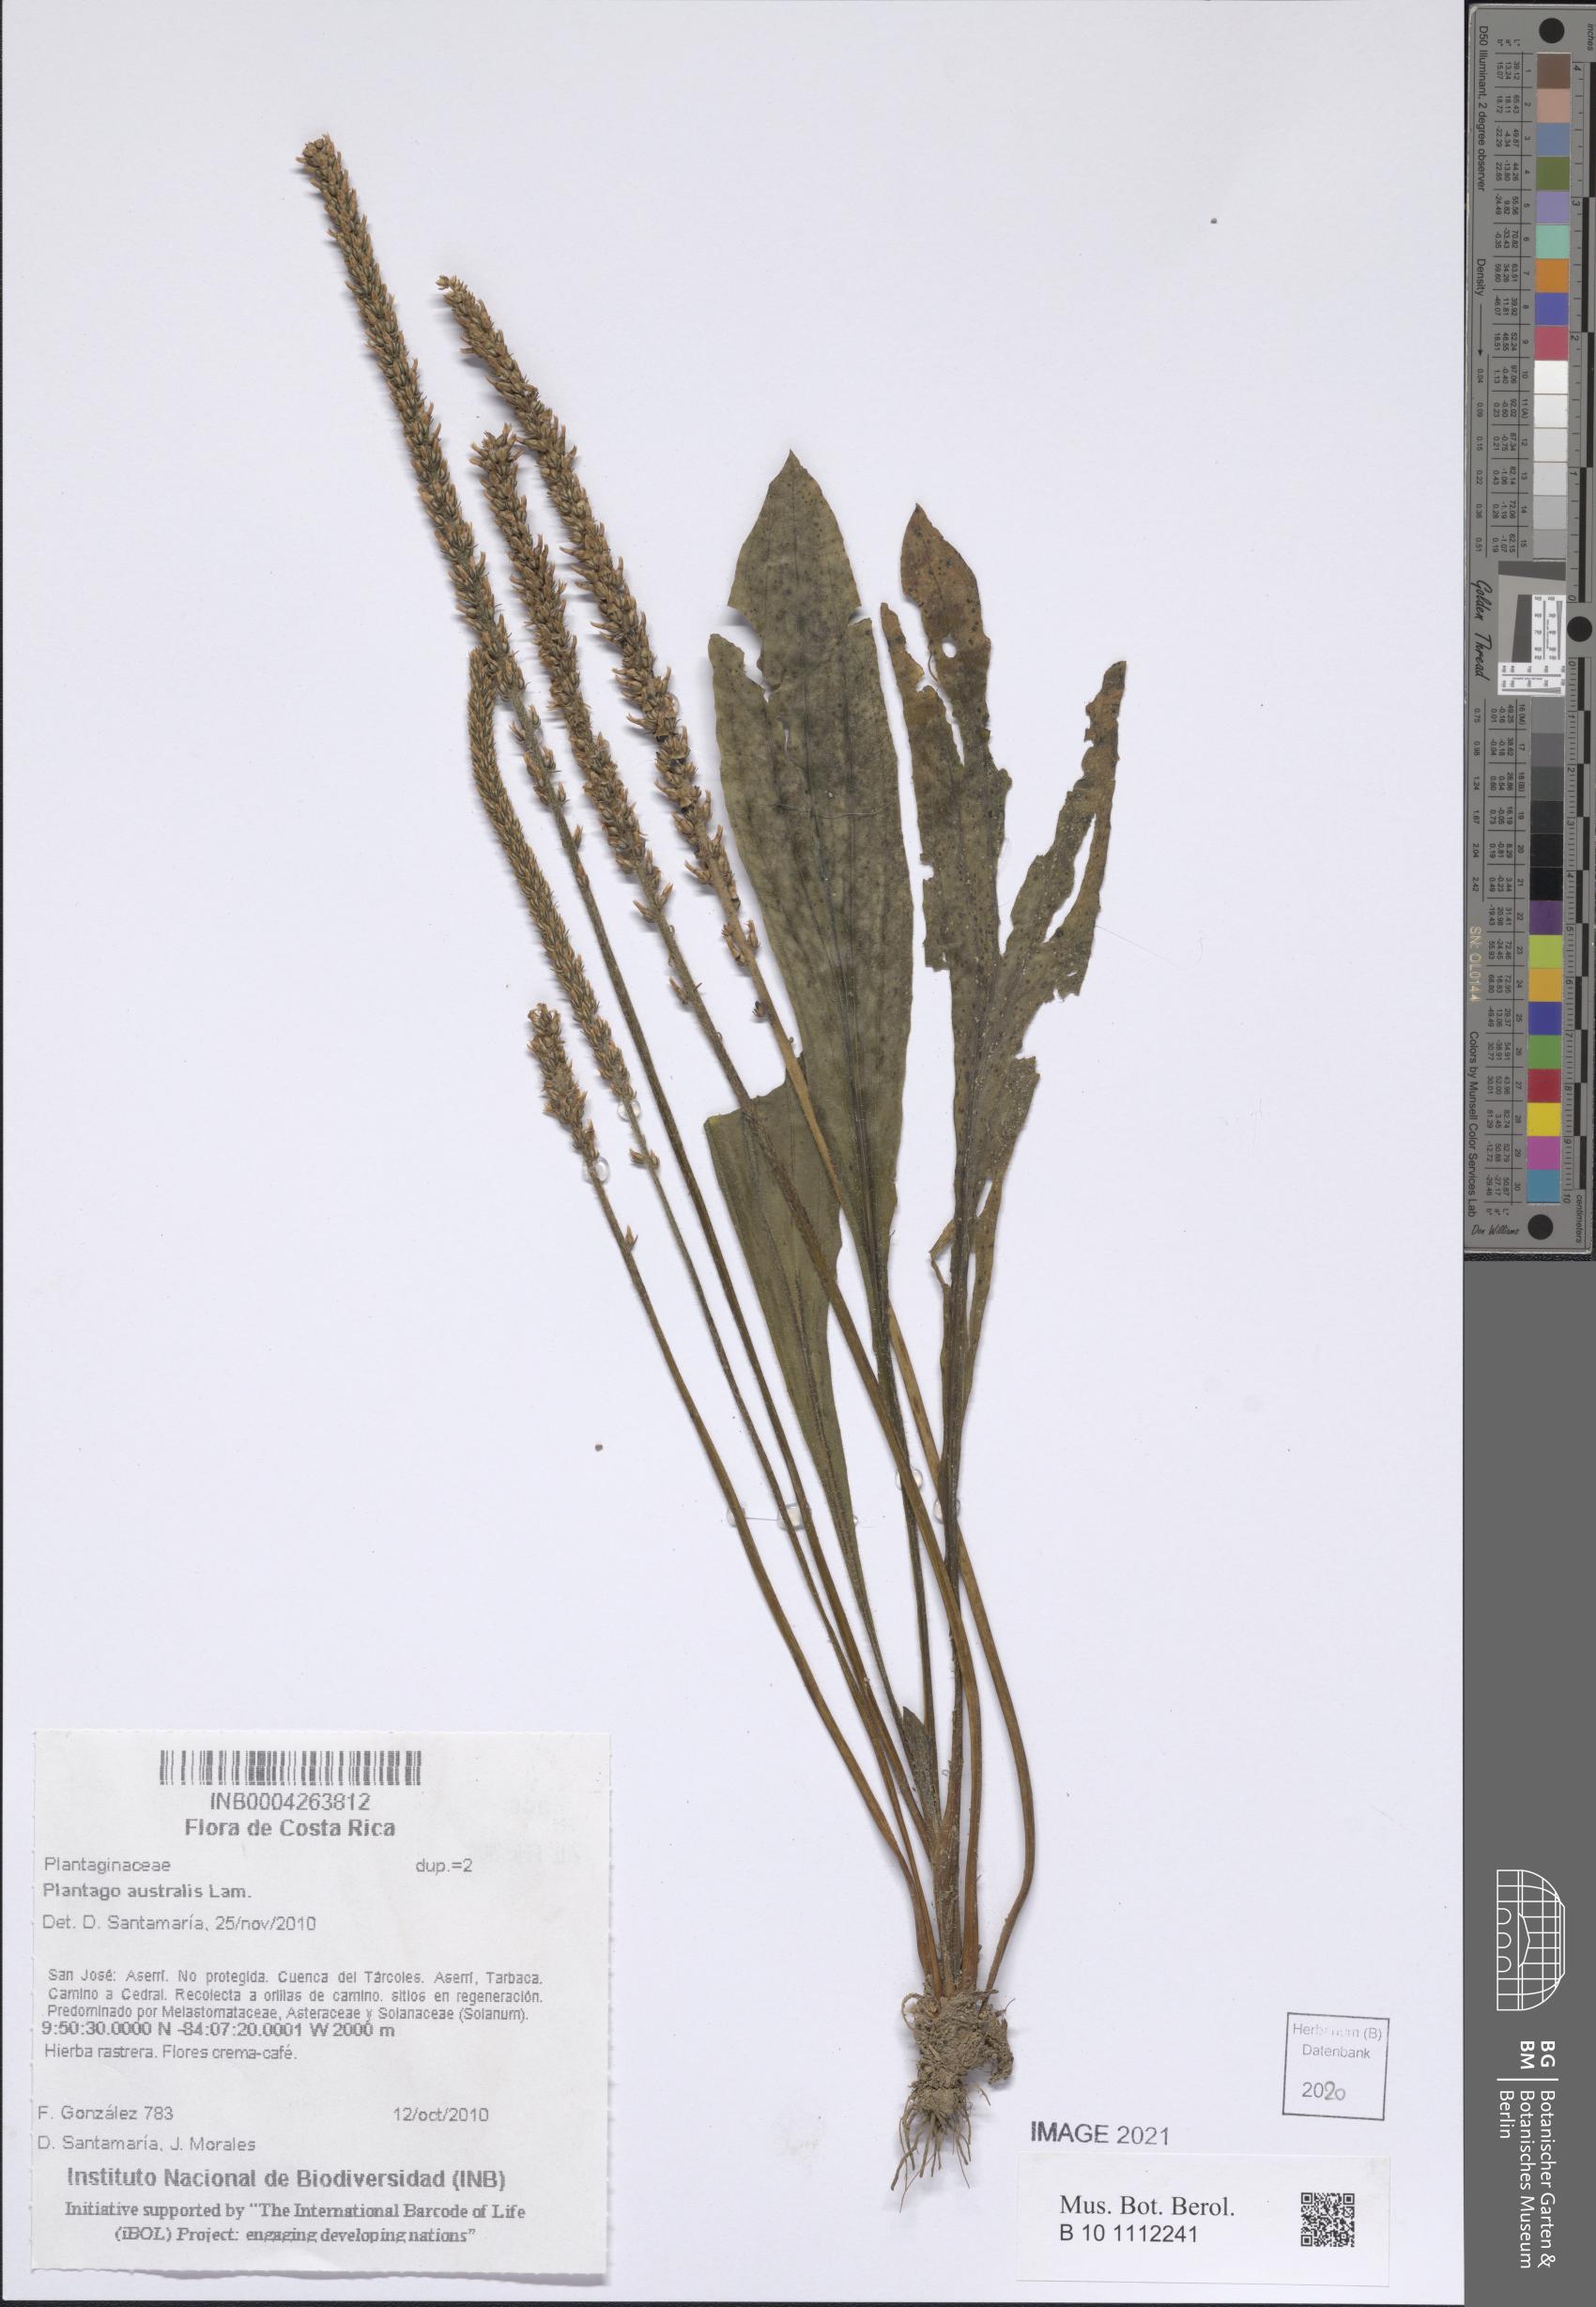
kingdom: Plantae
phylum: Tracheophyta
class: Magnoliopsida
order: Lamiales
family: Plantaginaceae
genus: Plantago
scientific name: Plantago australis
